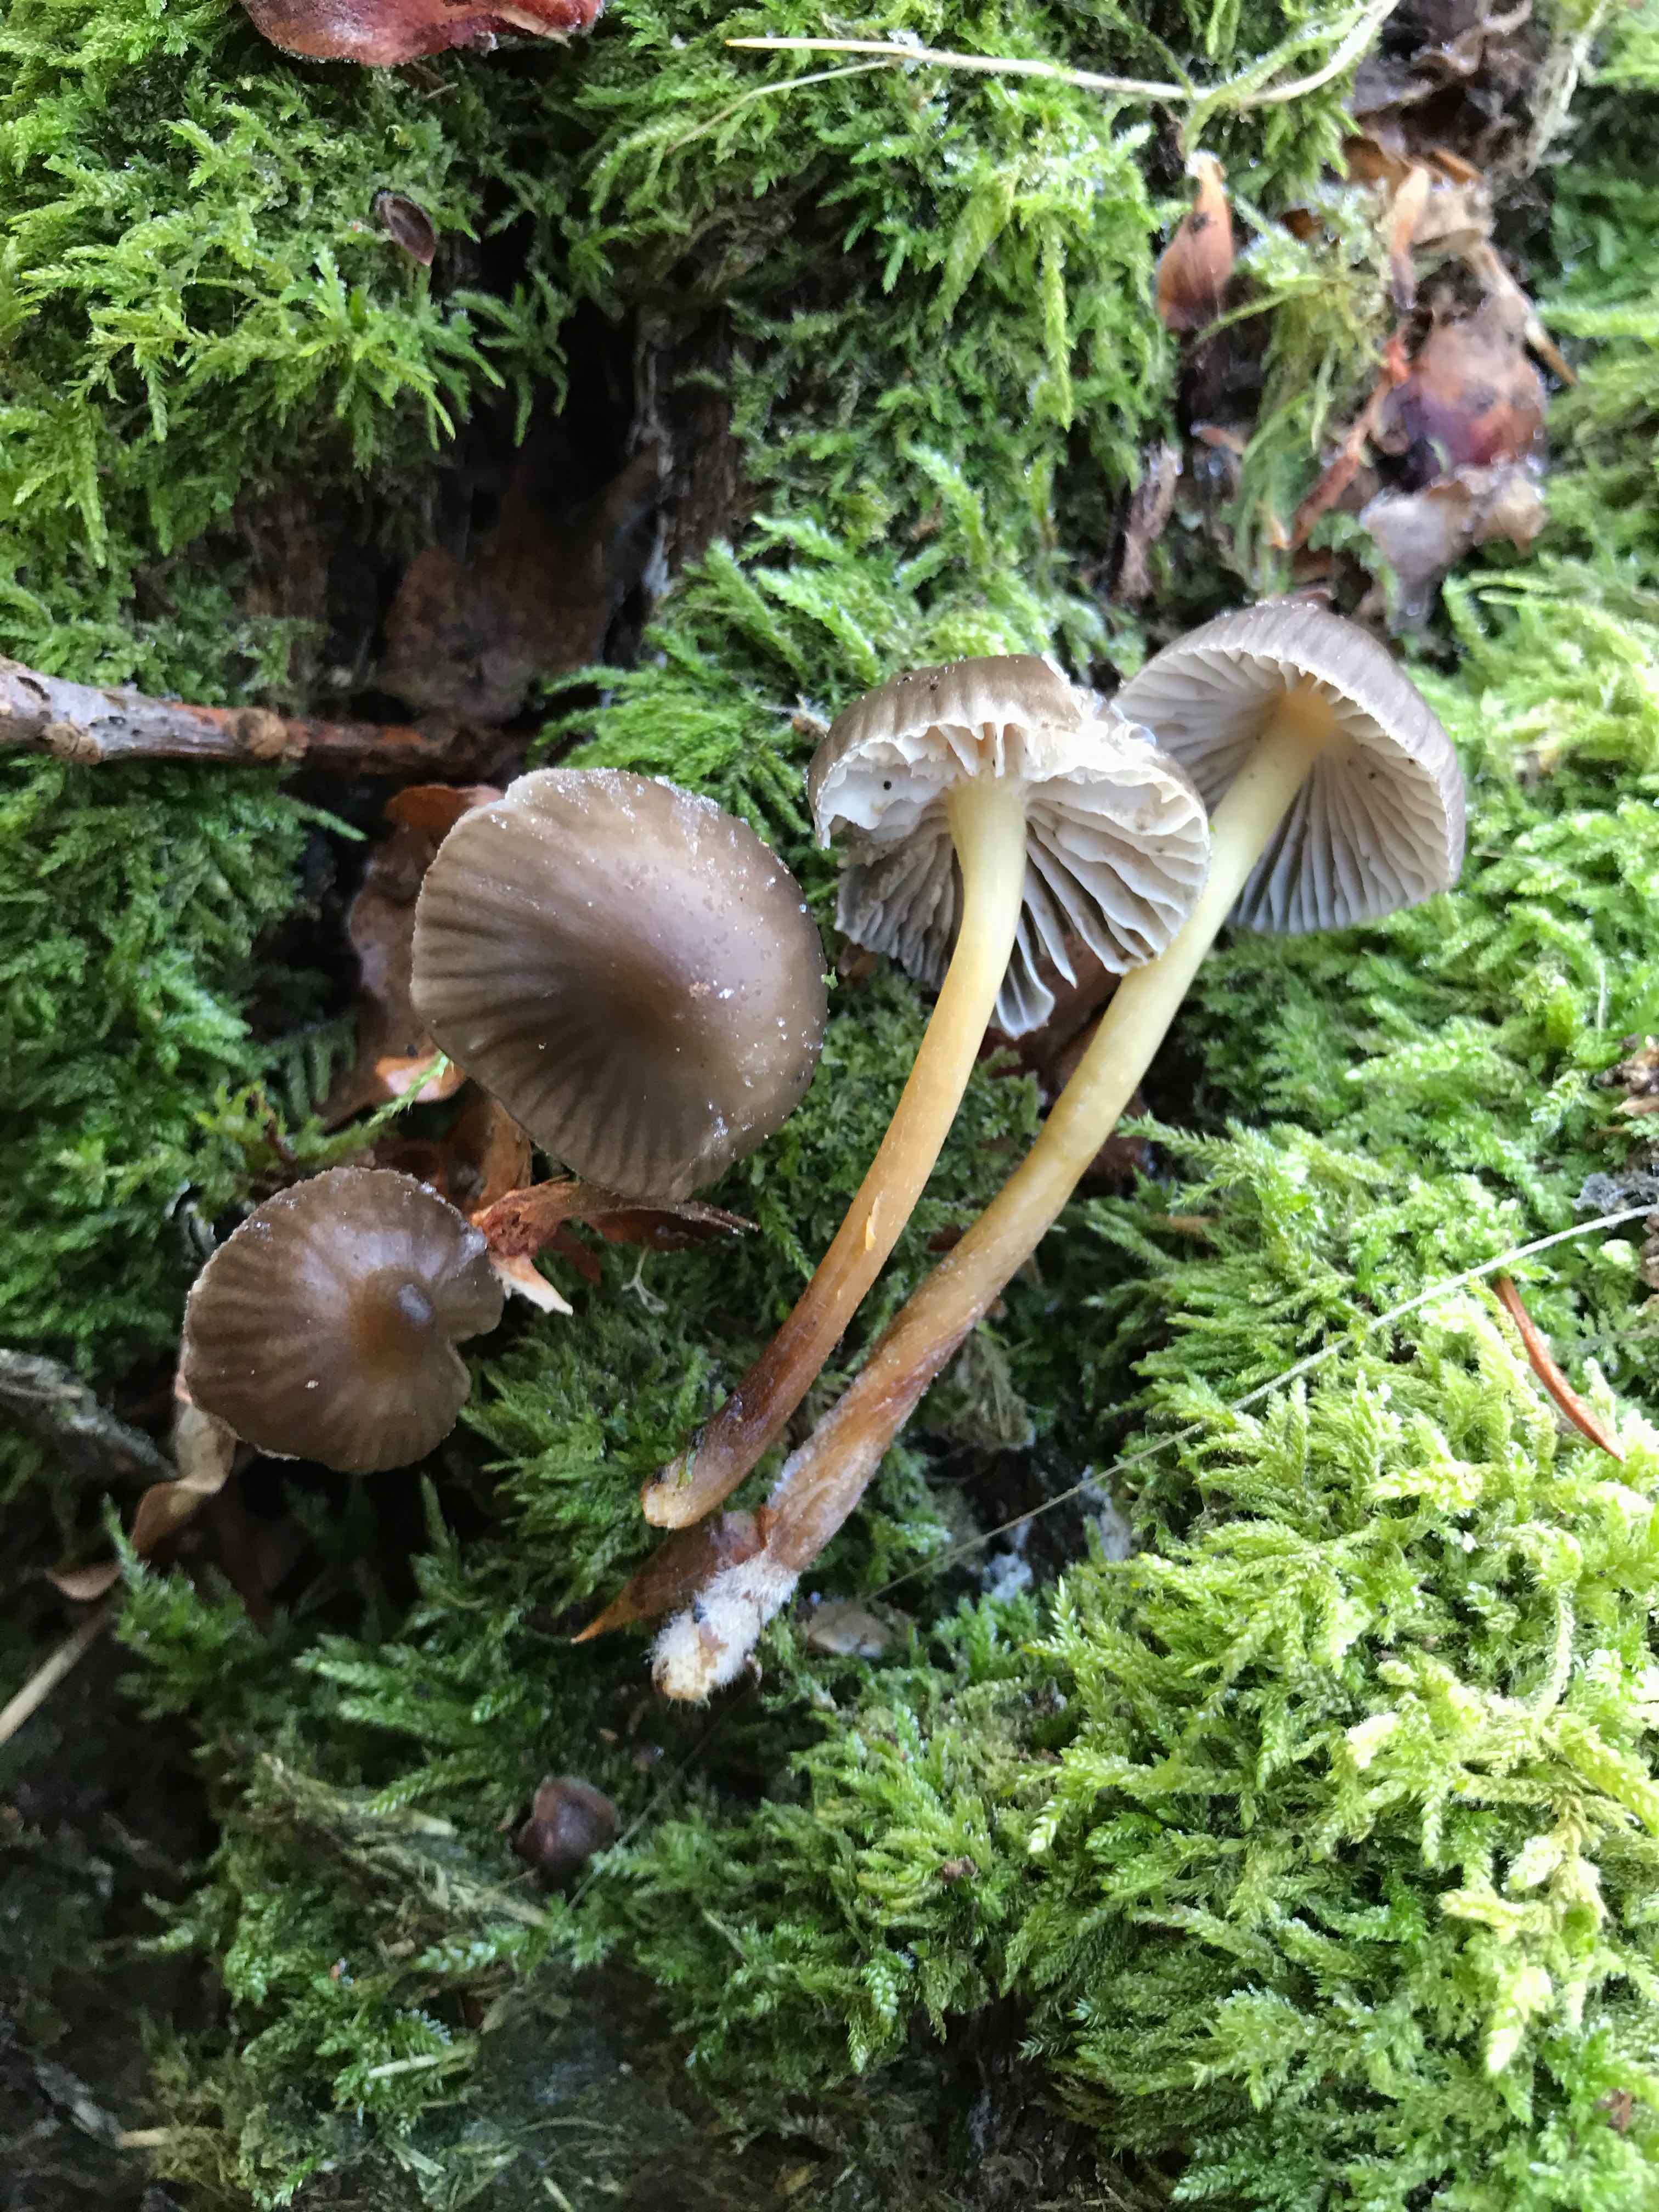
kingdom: Fungi
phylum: Basidiomycota
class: Agaricomycetes
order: Agaricales
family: Mycenaceae
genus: Mycena
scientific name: Mycena inclinata
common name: nikkende huesvamp
